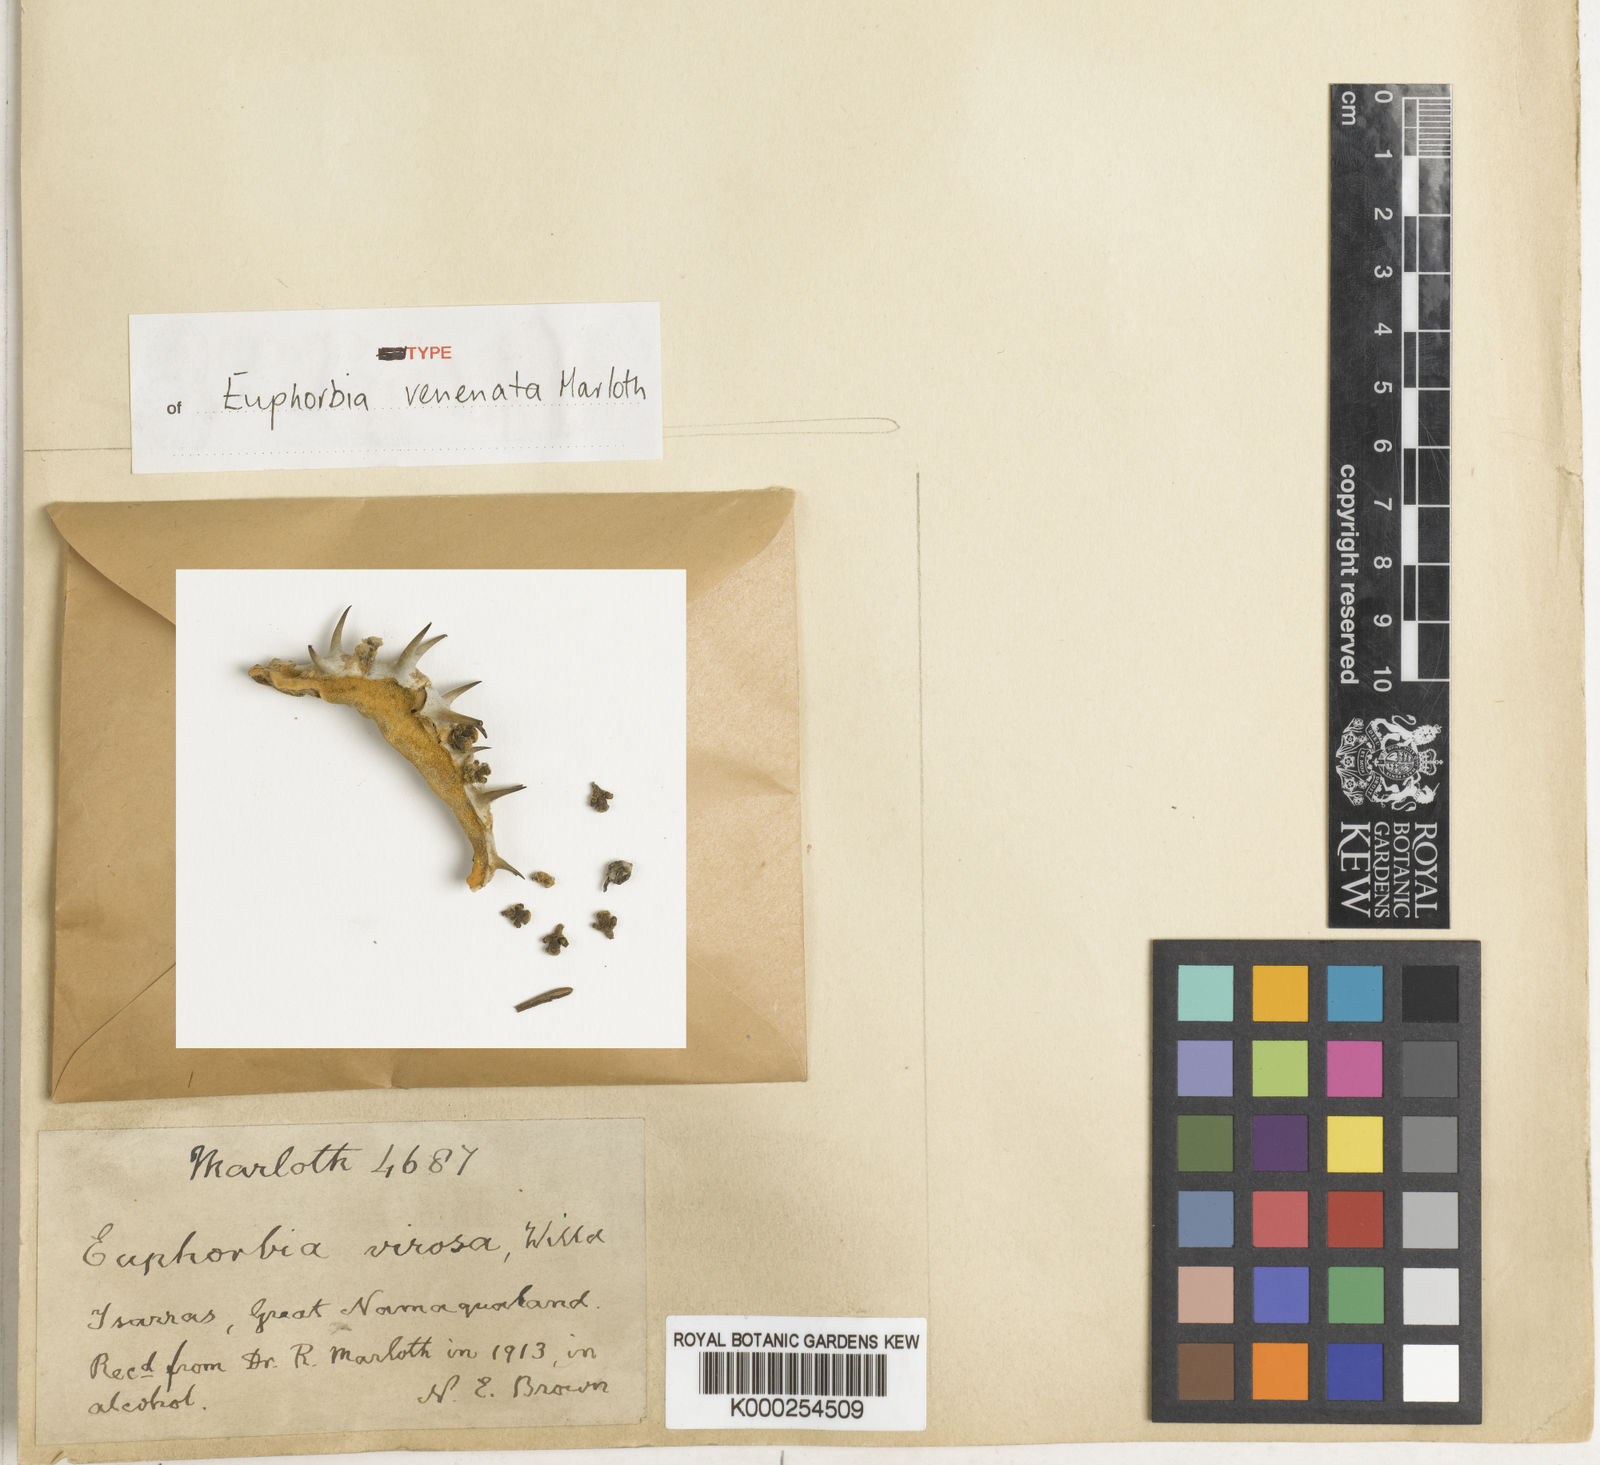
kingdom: Plantae
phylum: Tracheophyta
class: Magnoliopsida
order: Malpighiales
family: Euphorbiaceae
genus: Euphorbia
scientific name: Euphorbia avasmontana
